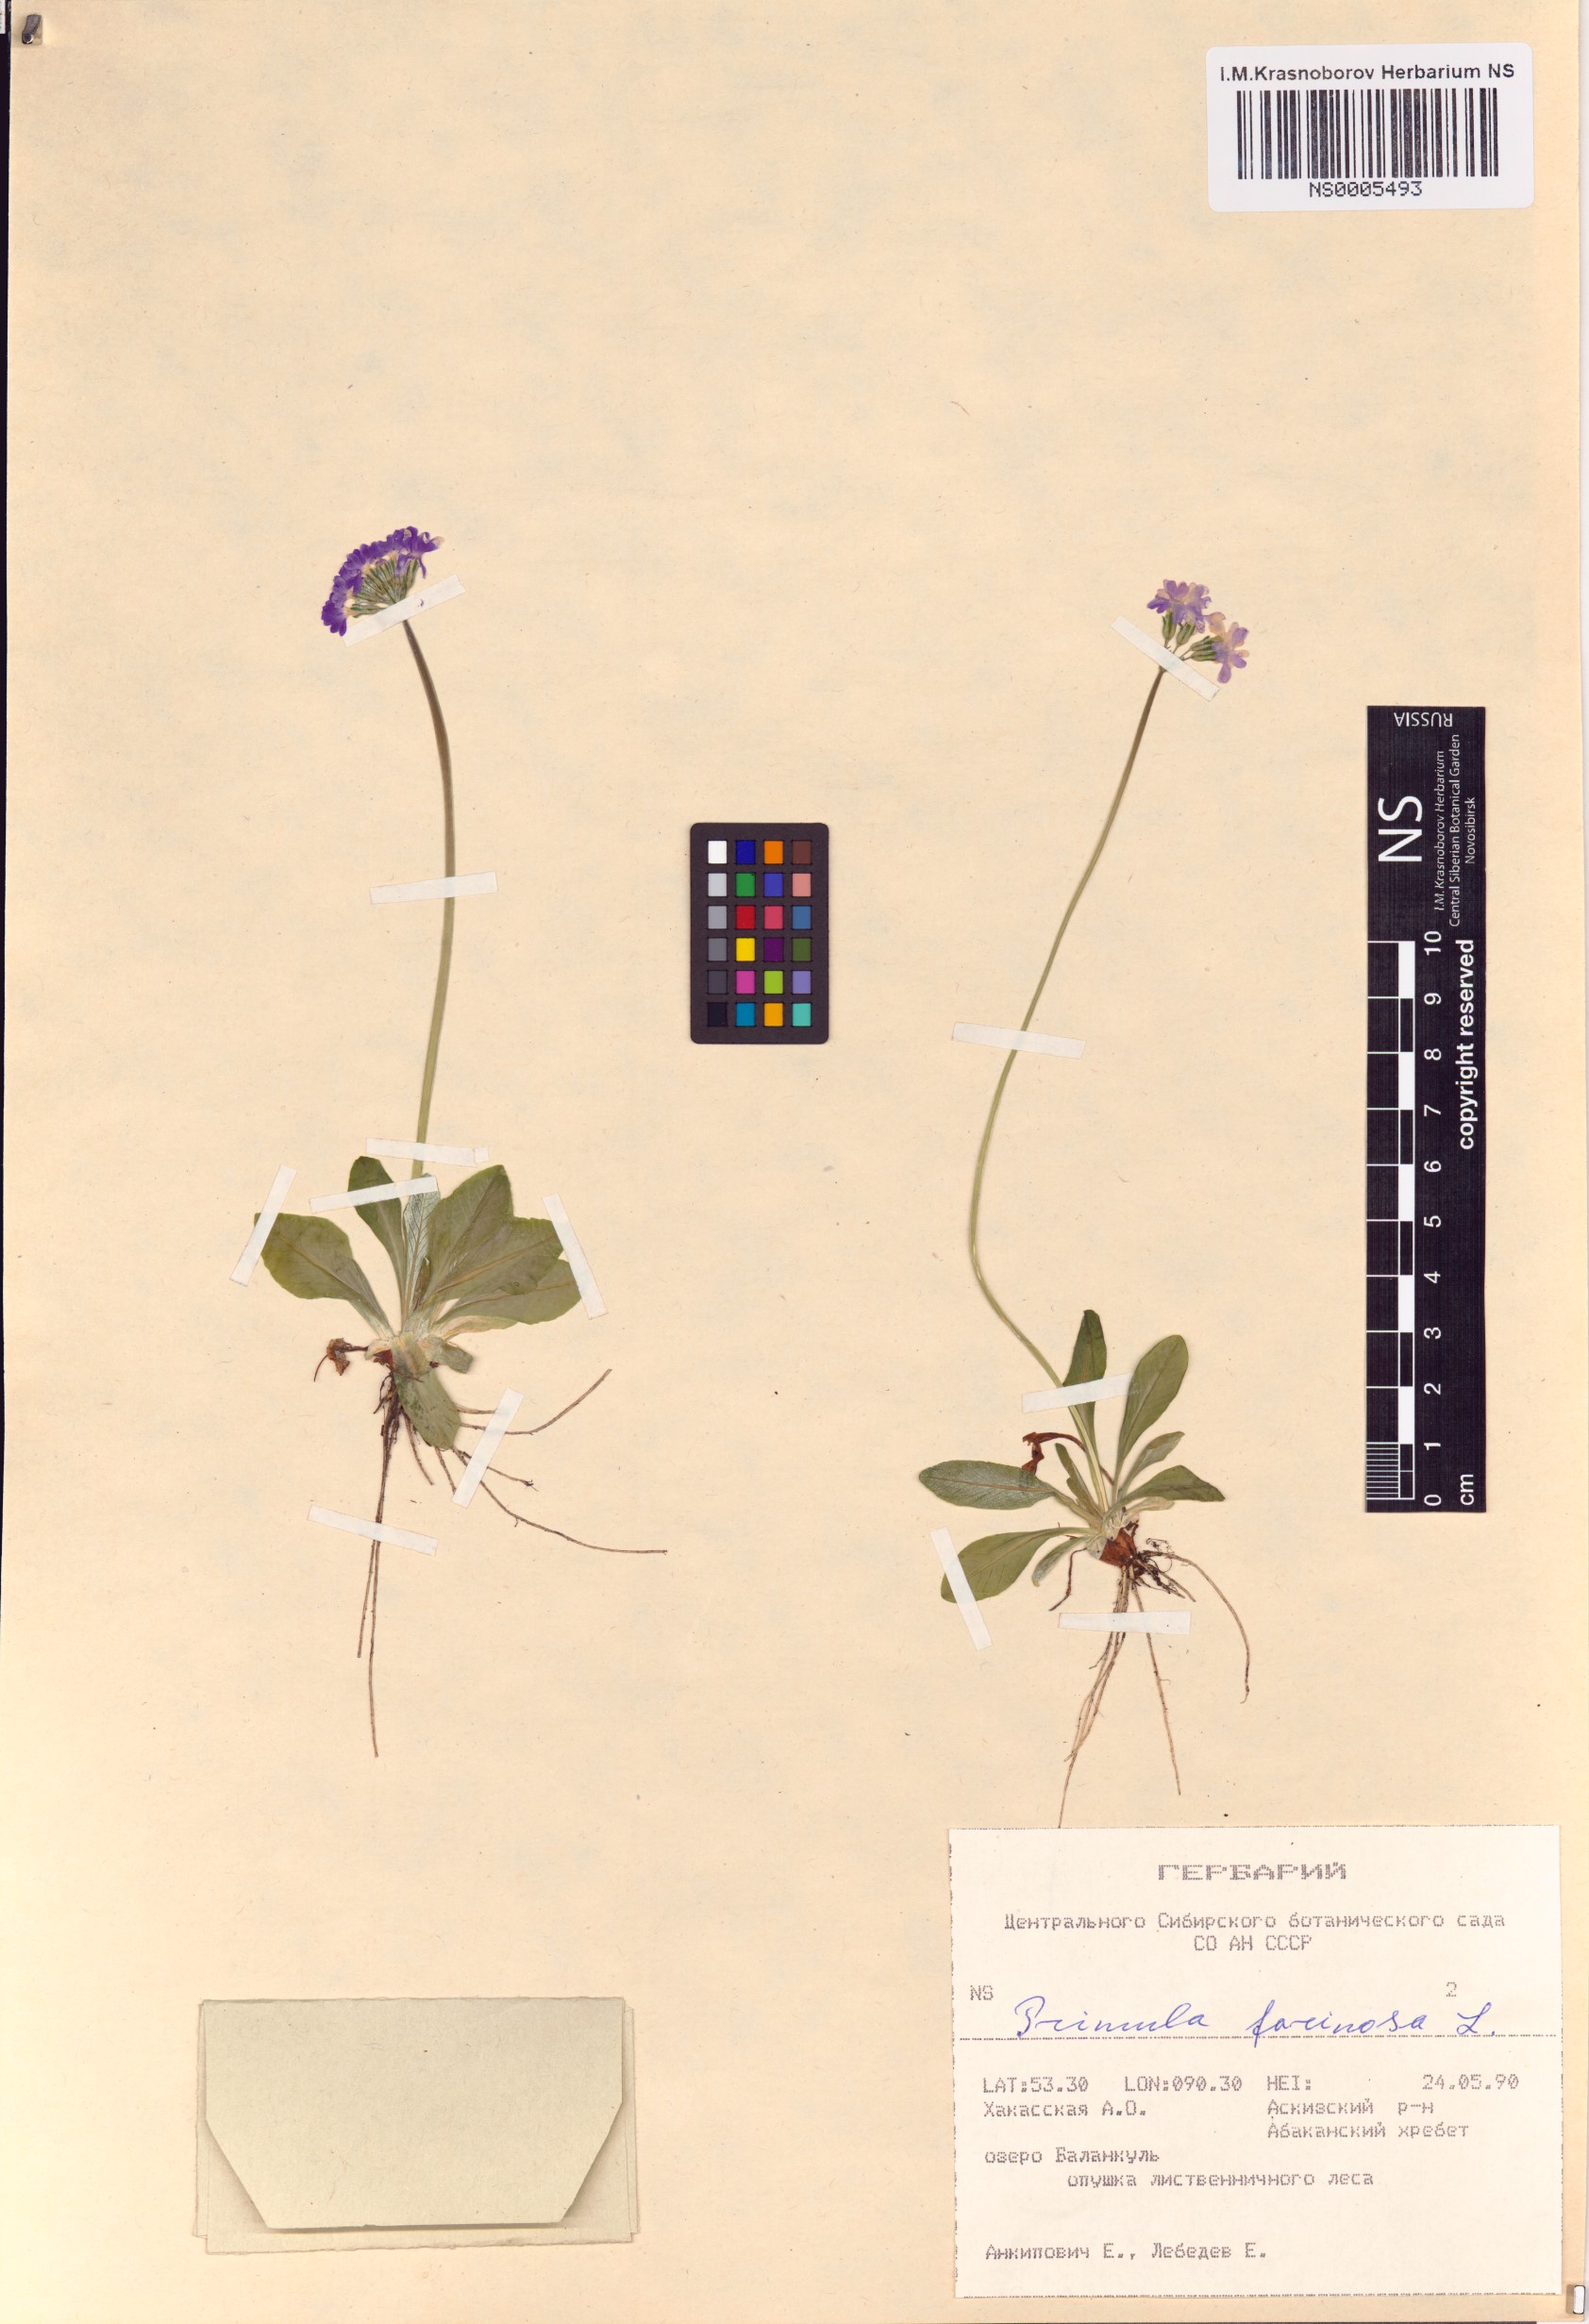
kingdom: Plantae
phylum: Tracheophyta
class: Magnoliopsida
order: Ericales
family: Primulaceae
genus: Primula
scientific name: Primula farinosa
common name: Bird's-eye primrose
